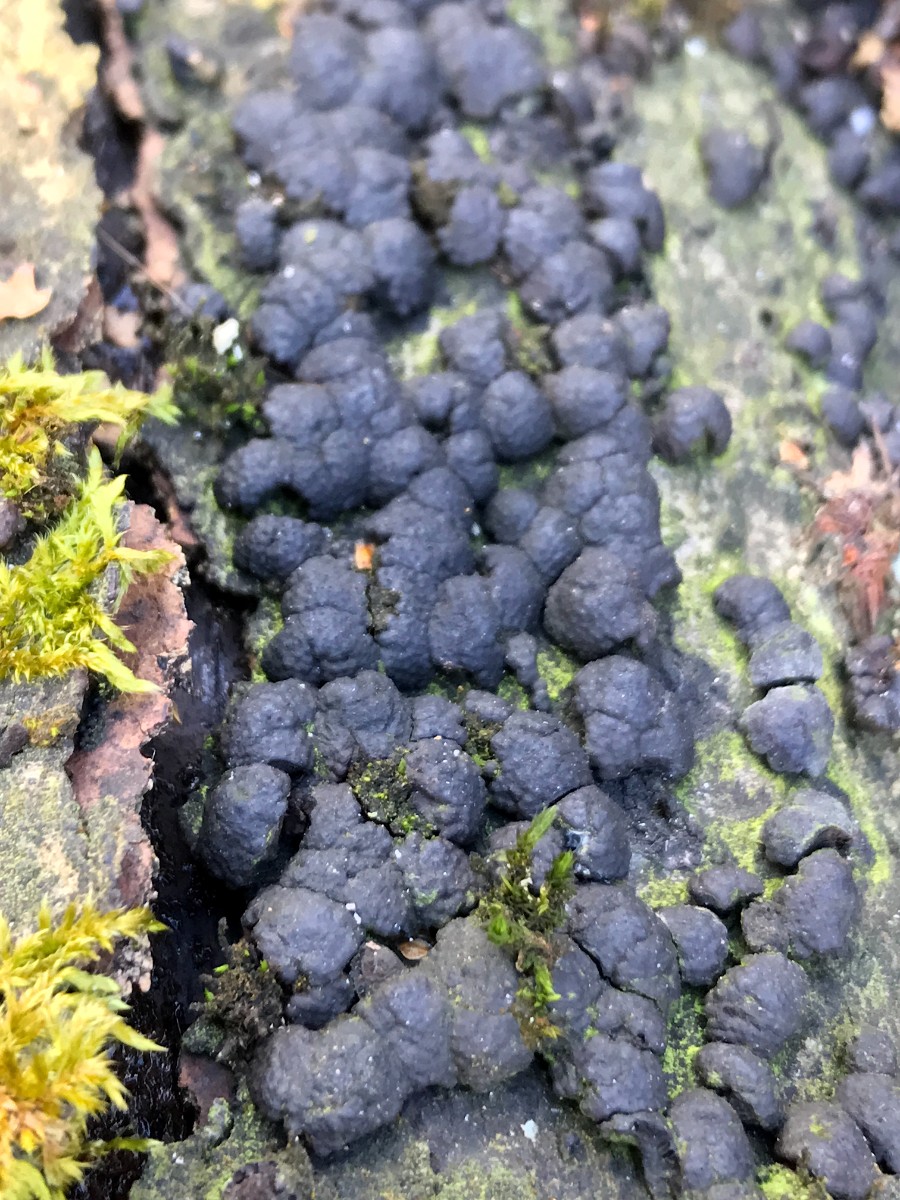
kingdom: Fungi
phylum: Ascomycota
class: Sordariomycetes
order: Xylariales
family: Hypoxylaceae
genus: Jackrogersella
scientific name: Jackrogersella cohaerens
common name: sammenflydende kulbær
